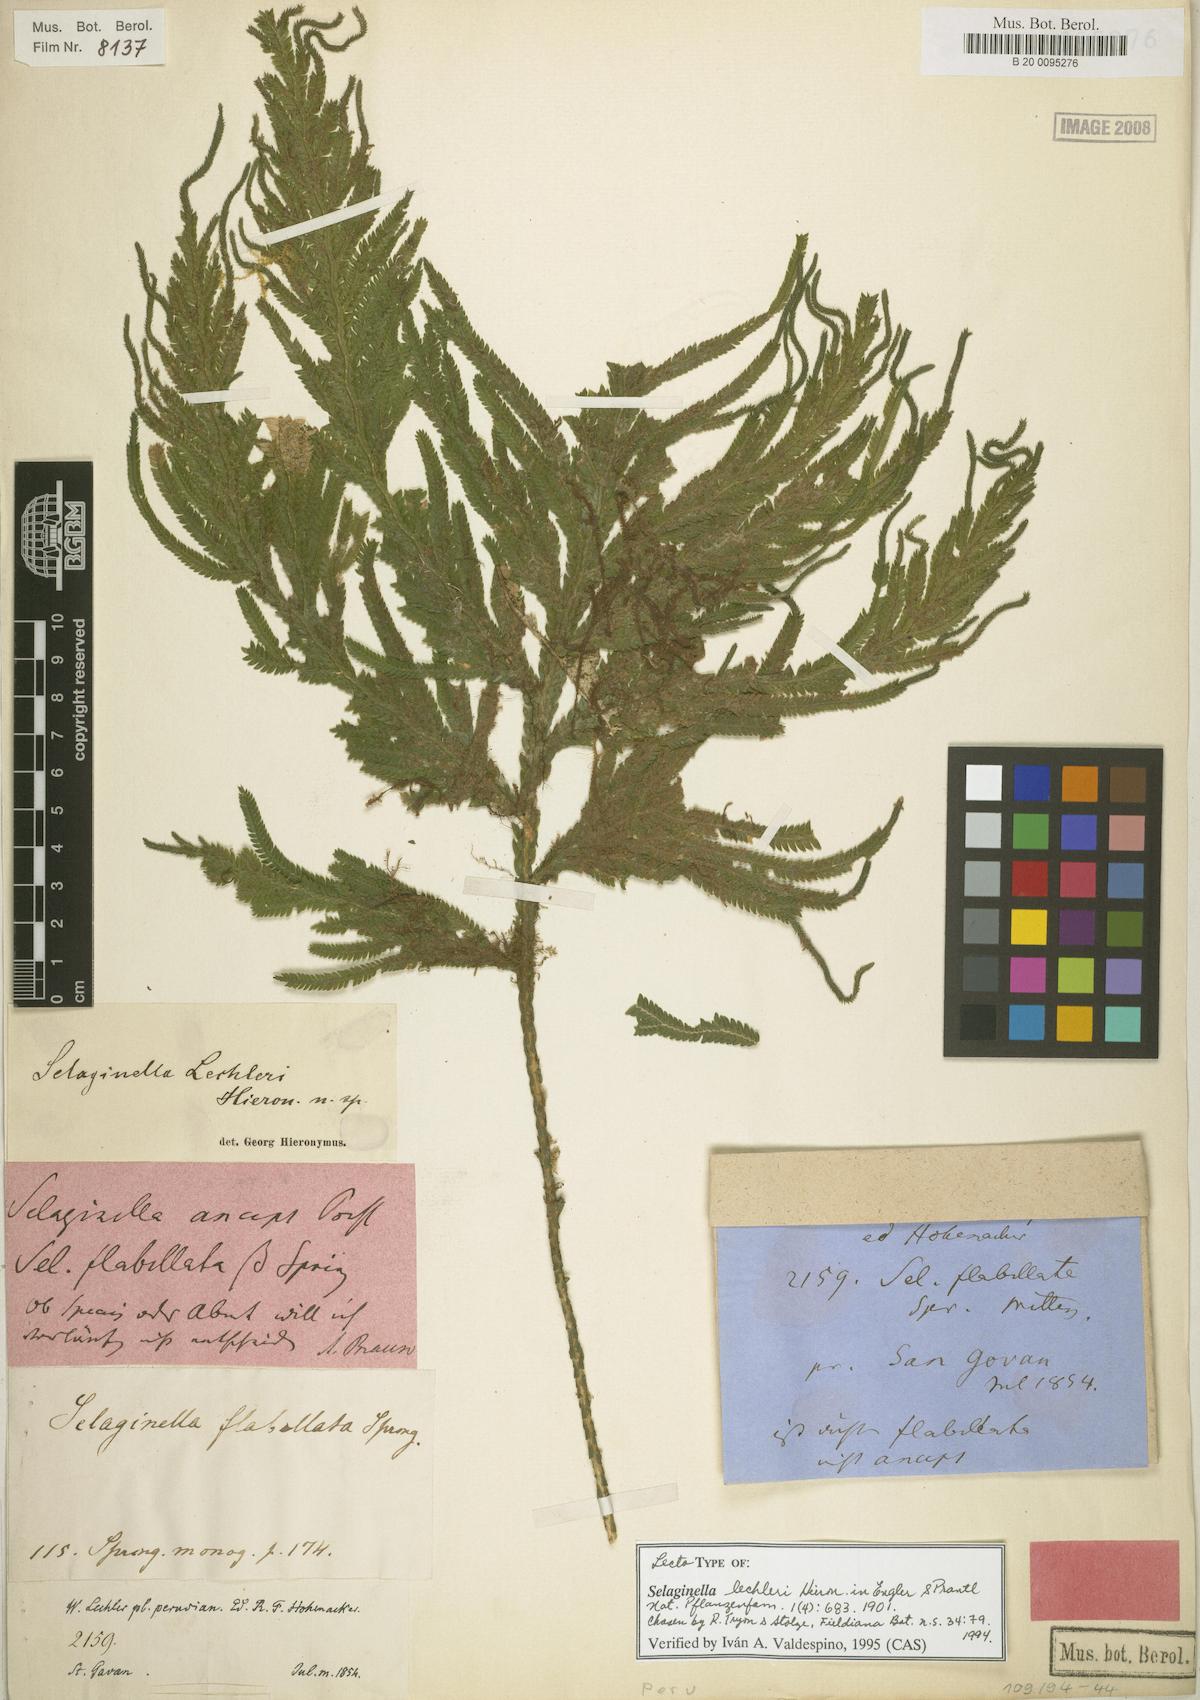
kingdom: Plantae
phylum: Tracheophyta
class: Lycopodiopsida
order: Selaginellales
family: Selaginellaceae
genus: Selaginella
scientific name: Selaginella lechleri
